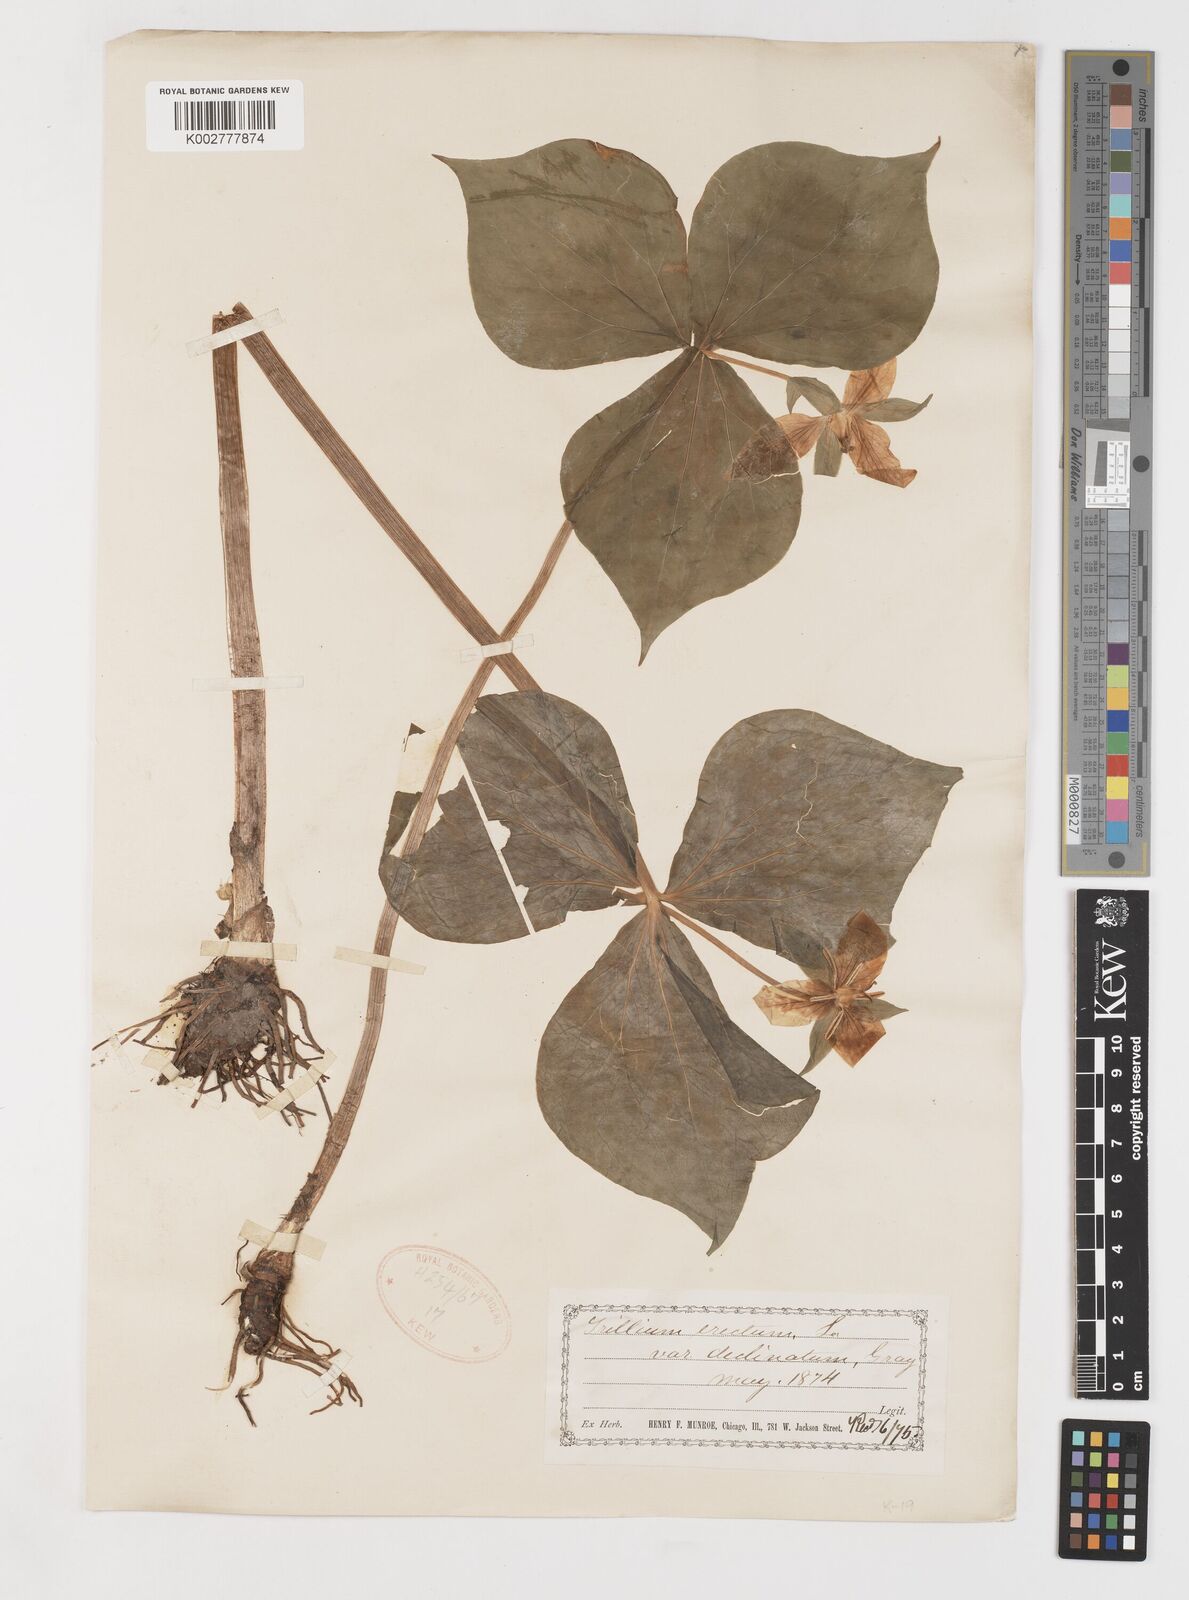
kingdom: Plantae
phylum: Tracheophyta
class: Liliopsida
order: Liliales
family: Melanthiaceae
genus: Trillium
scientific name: Trillium erectum
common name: Purple trillium
